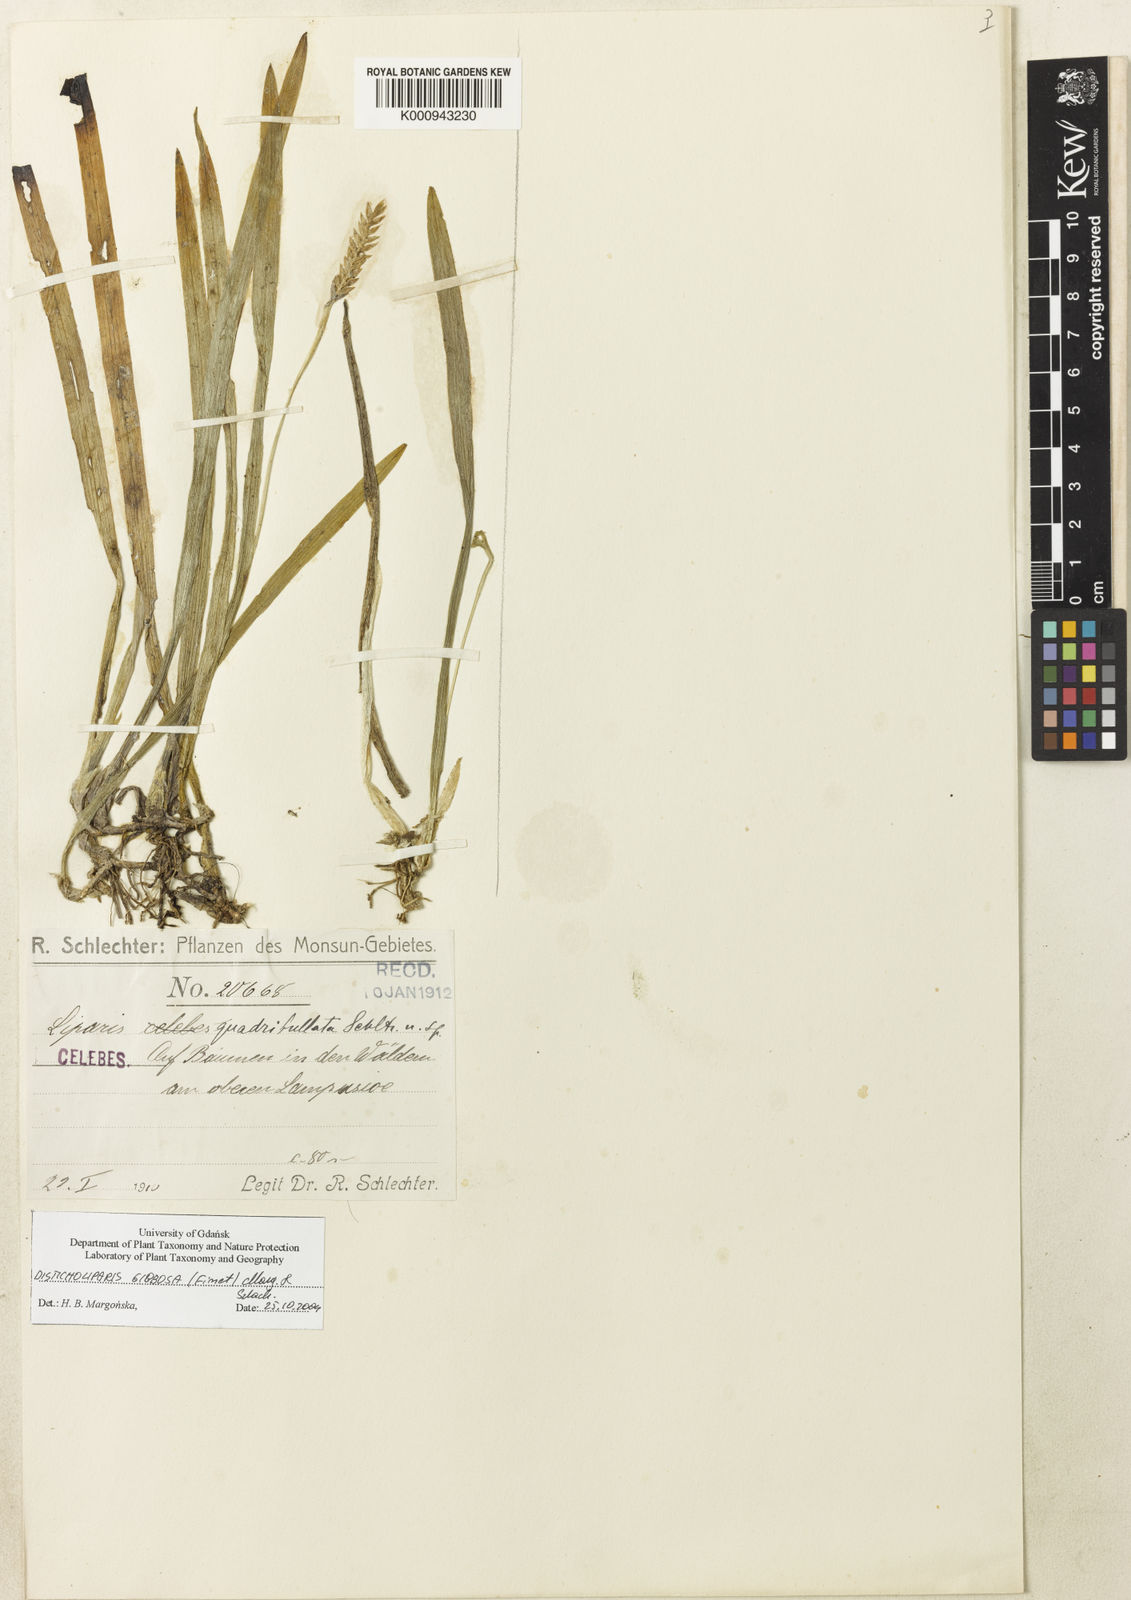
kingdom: Plantae
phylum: Tracheophyta
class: Liliopsida
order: Asparagales
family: Orchidaceae
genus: Stichorkis
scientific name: Stichorkis gibbosa
